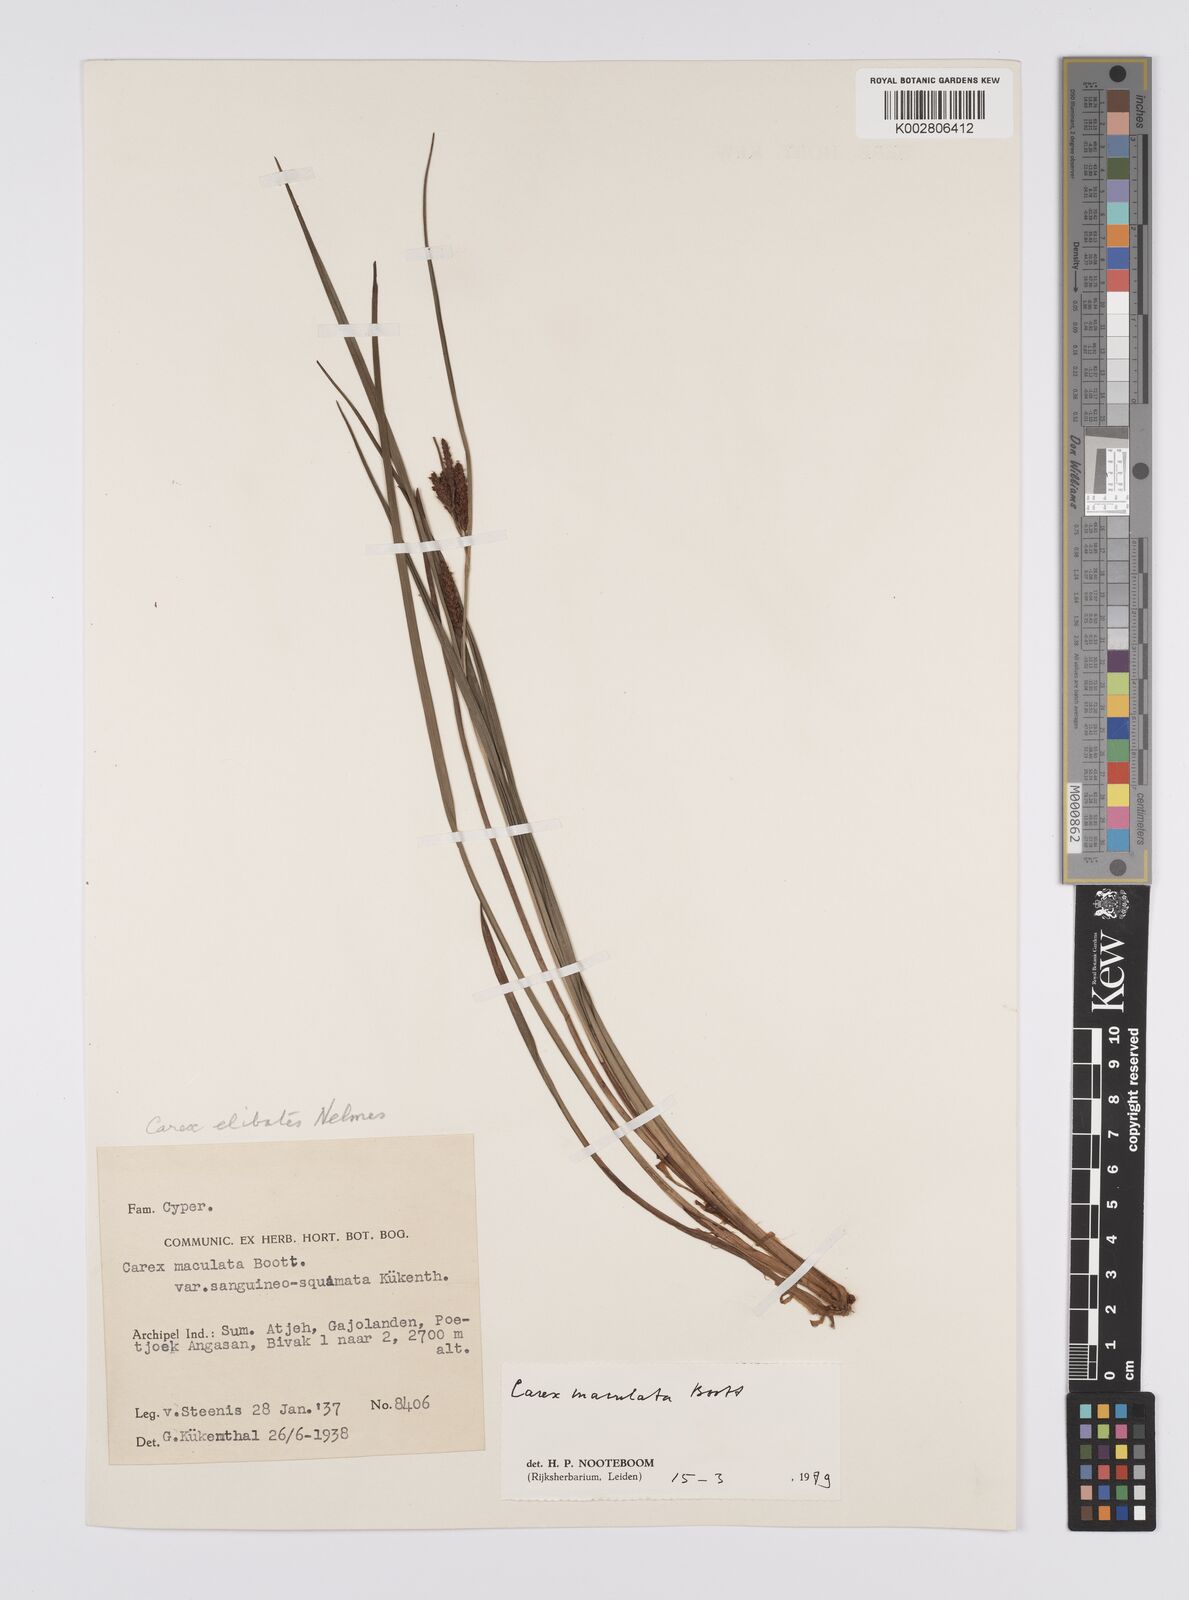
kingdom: Plantae
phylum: Tracheophyta
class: Liliopsida
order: Poales
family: Cyperaceae
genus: Carex
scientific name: Carex maculata
